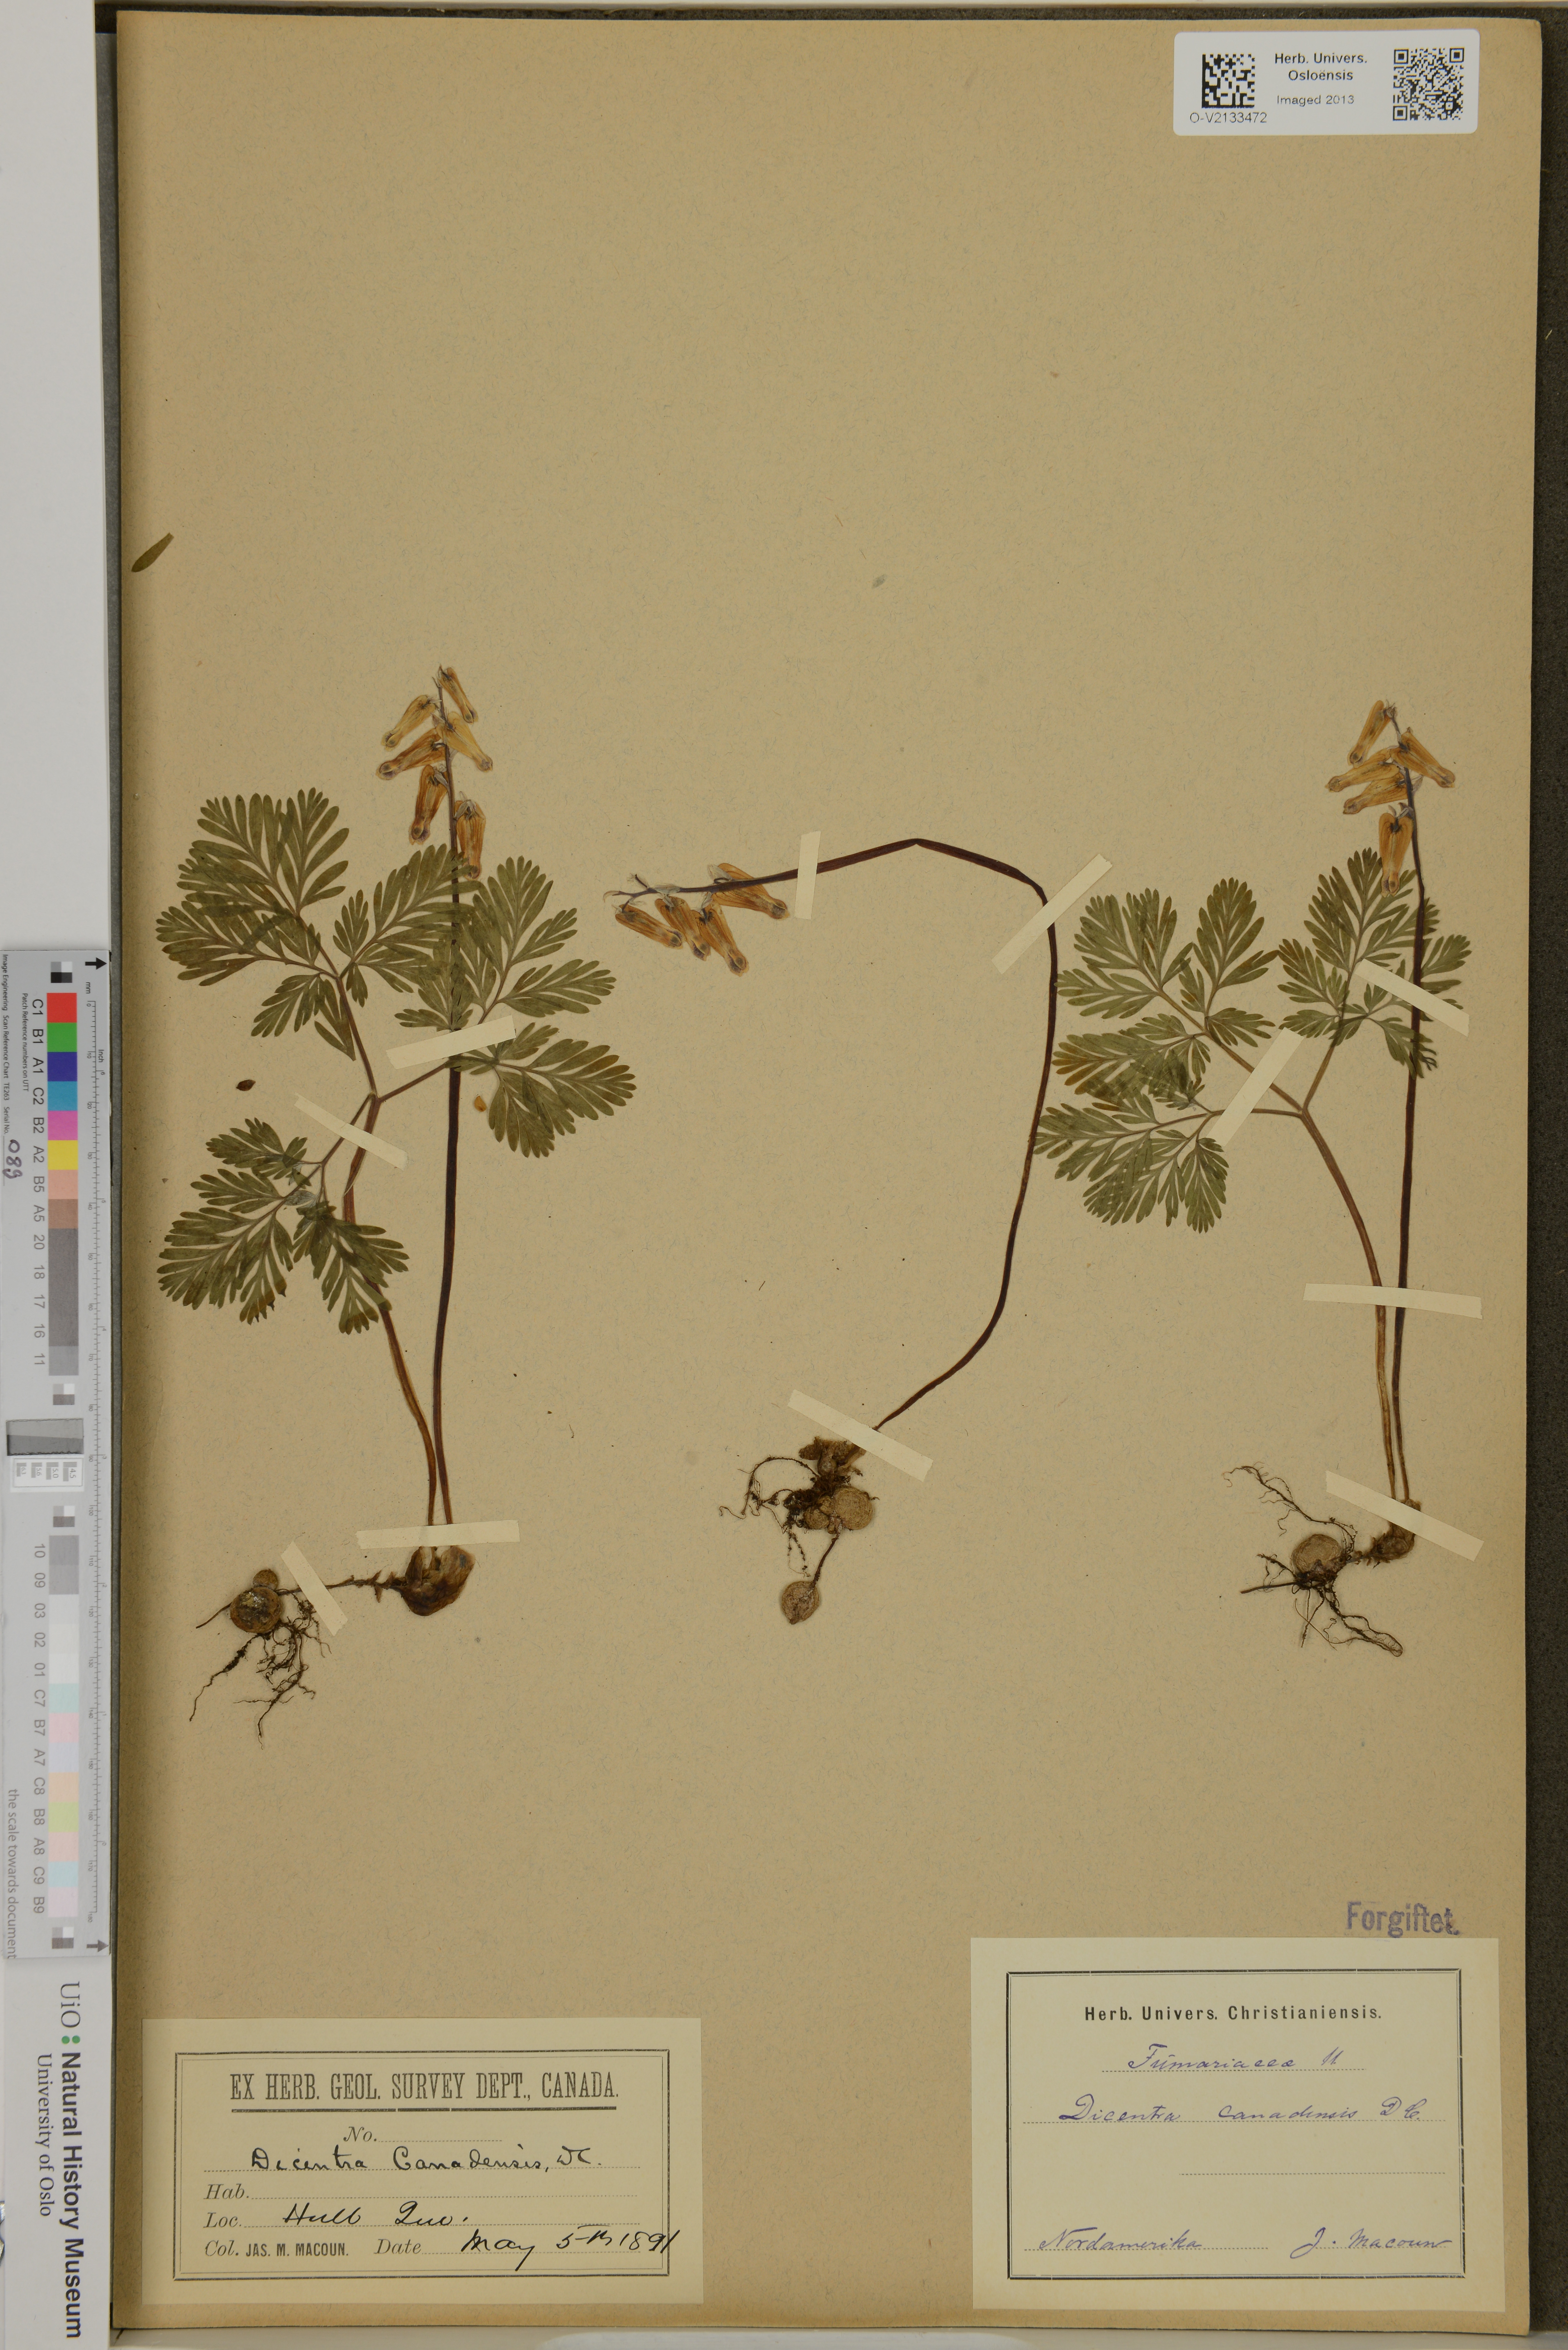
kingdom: Plantae
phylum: Tracheophyta
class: Magnoliopsida
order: Ranunculales
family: Papaveraceae
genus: Dicentra
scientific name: Dicentra canadensis
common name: Squirrel-corn
